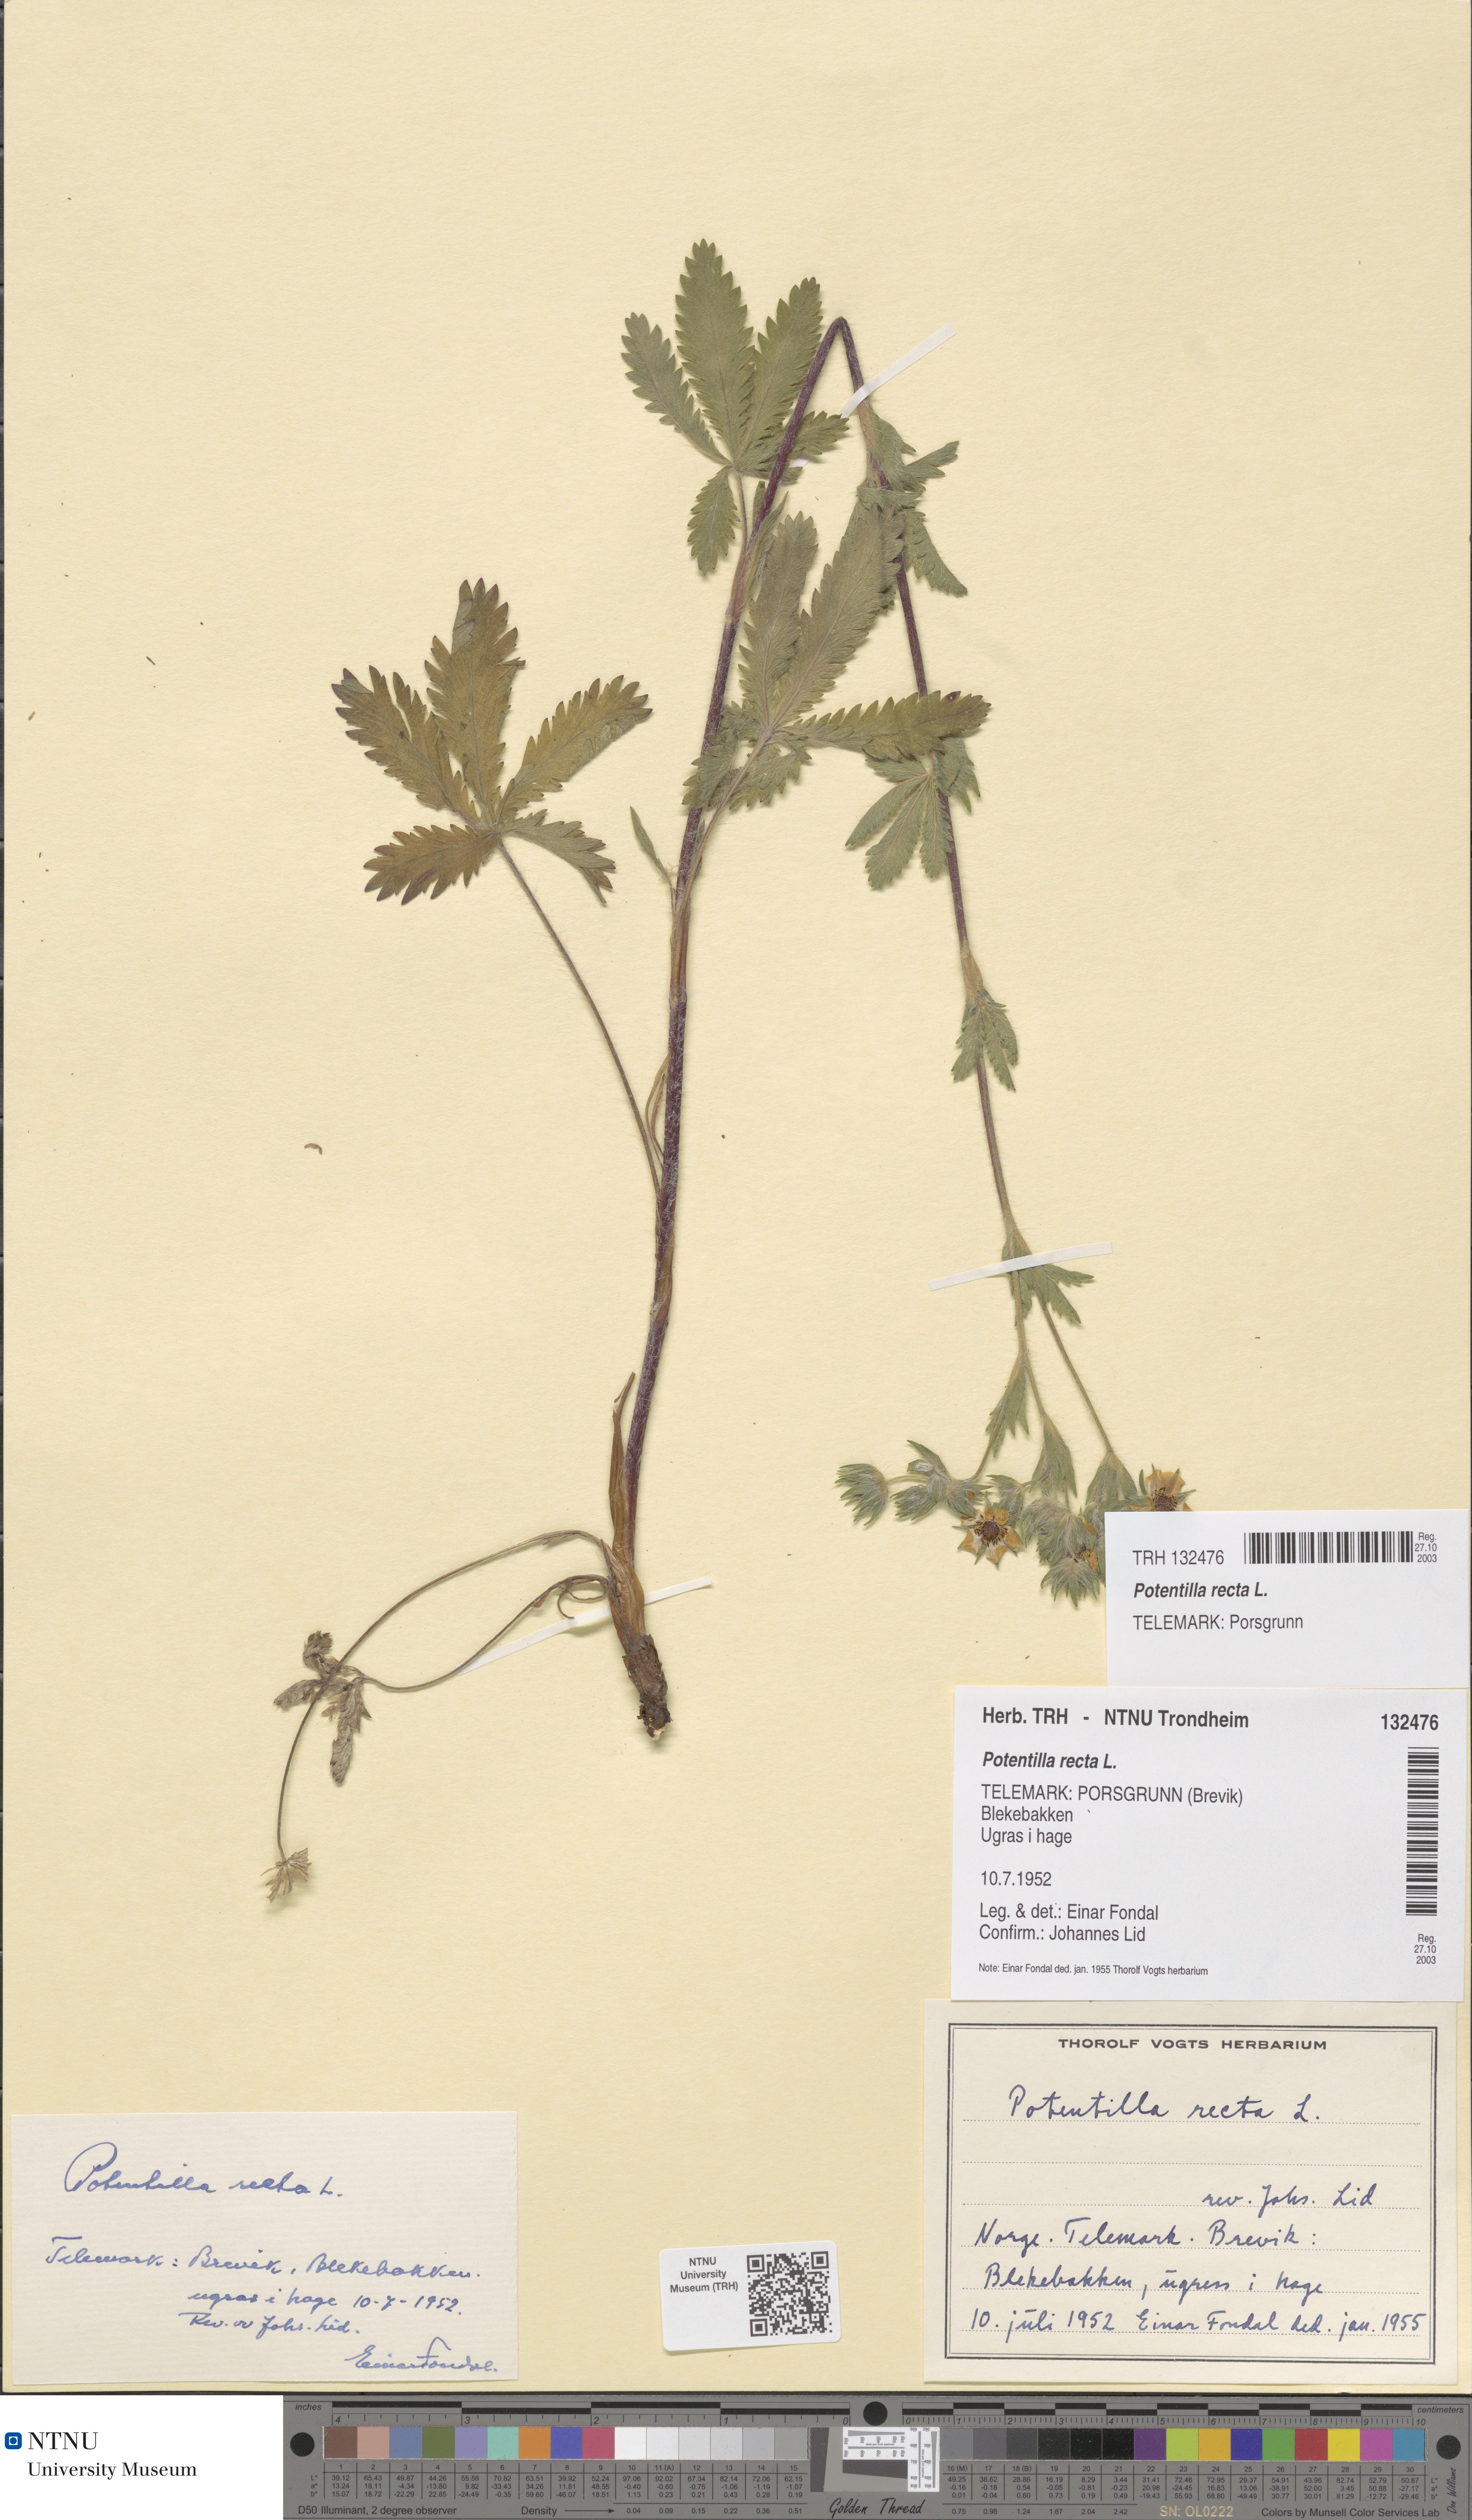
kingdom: Plantae
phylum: Tracheophyta
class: Magnoliopsida
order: Rosales
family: Rosaceae
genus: Potentilla
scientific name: Potentilla recta
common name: Sulphur cinquefoil
